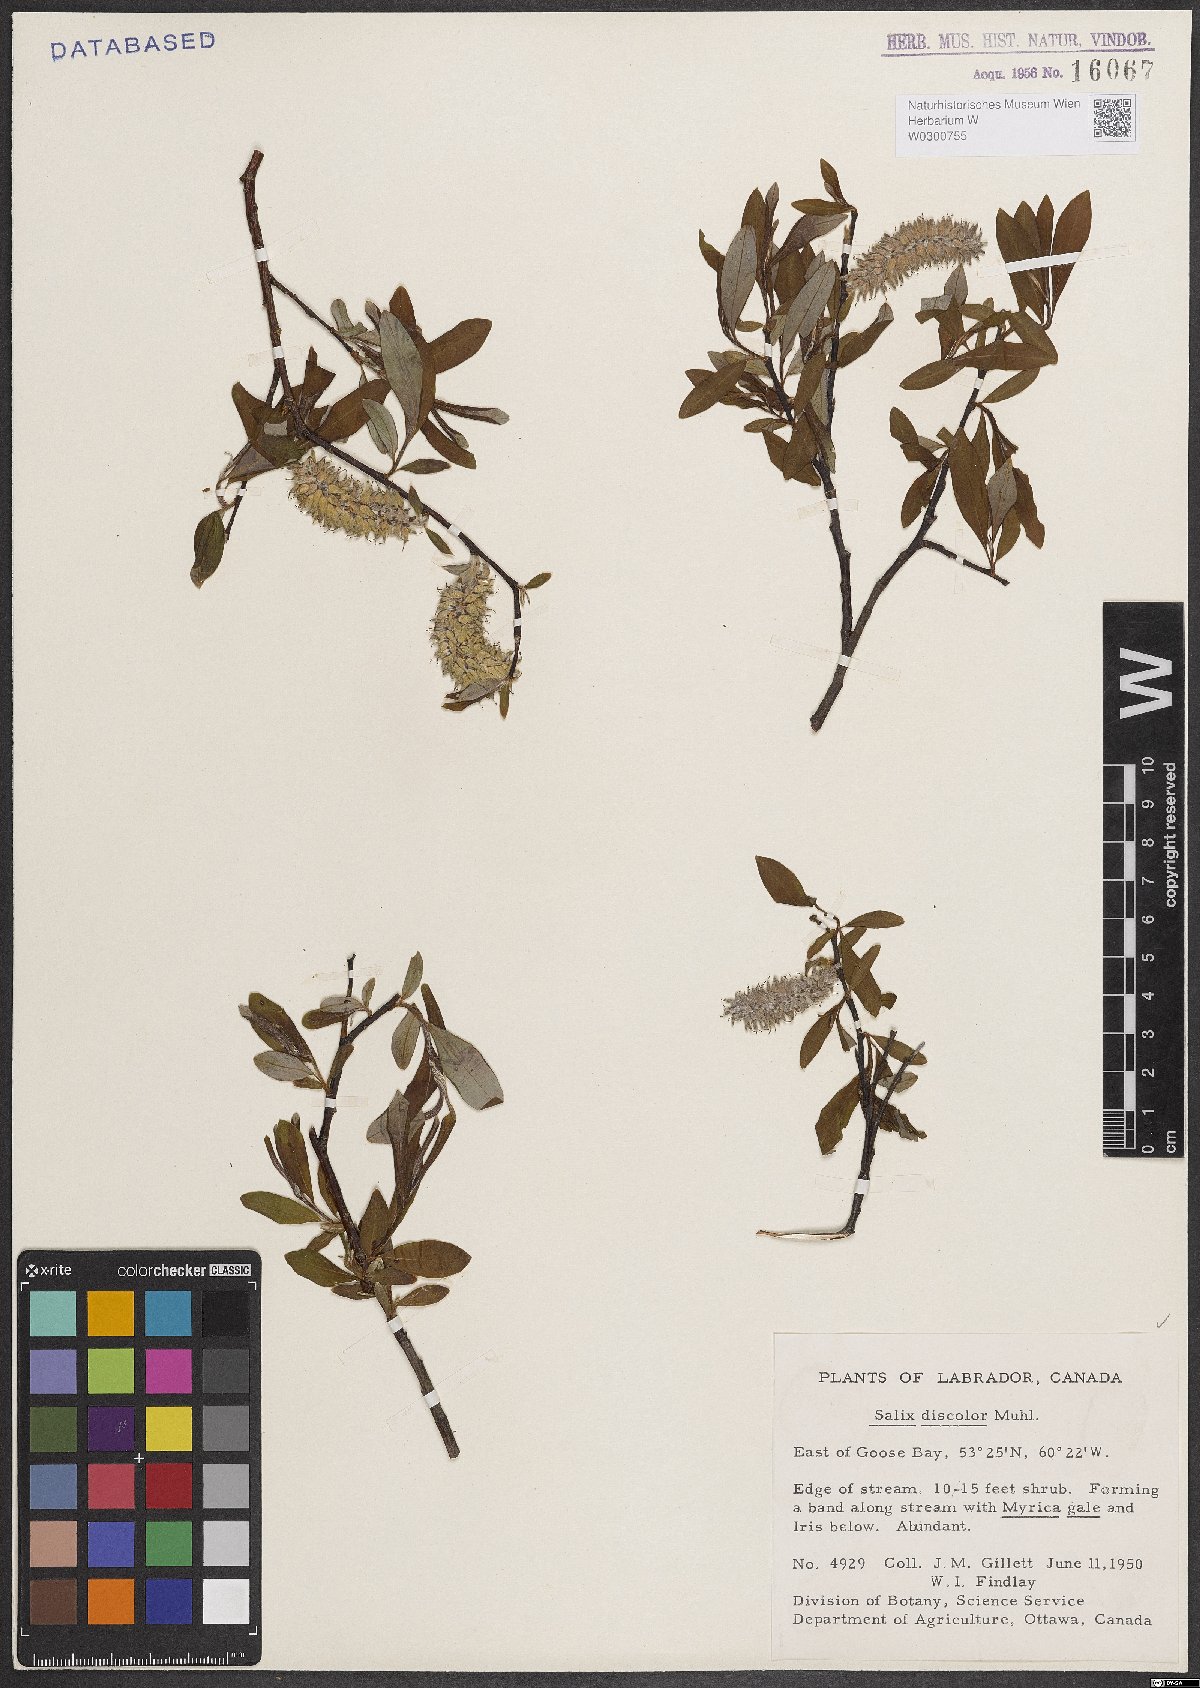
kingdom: Plantae
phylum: Tracheophyta
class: Magnoliopsida
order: Malpighiales
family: Salicaceae
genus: Salix
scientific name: Salix discolor
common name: Glaucous willow
